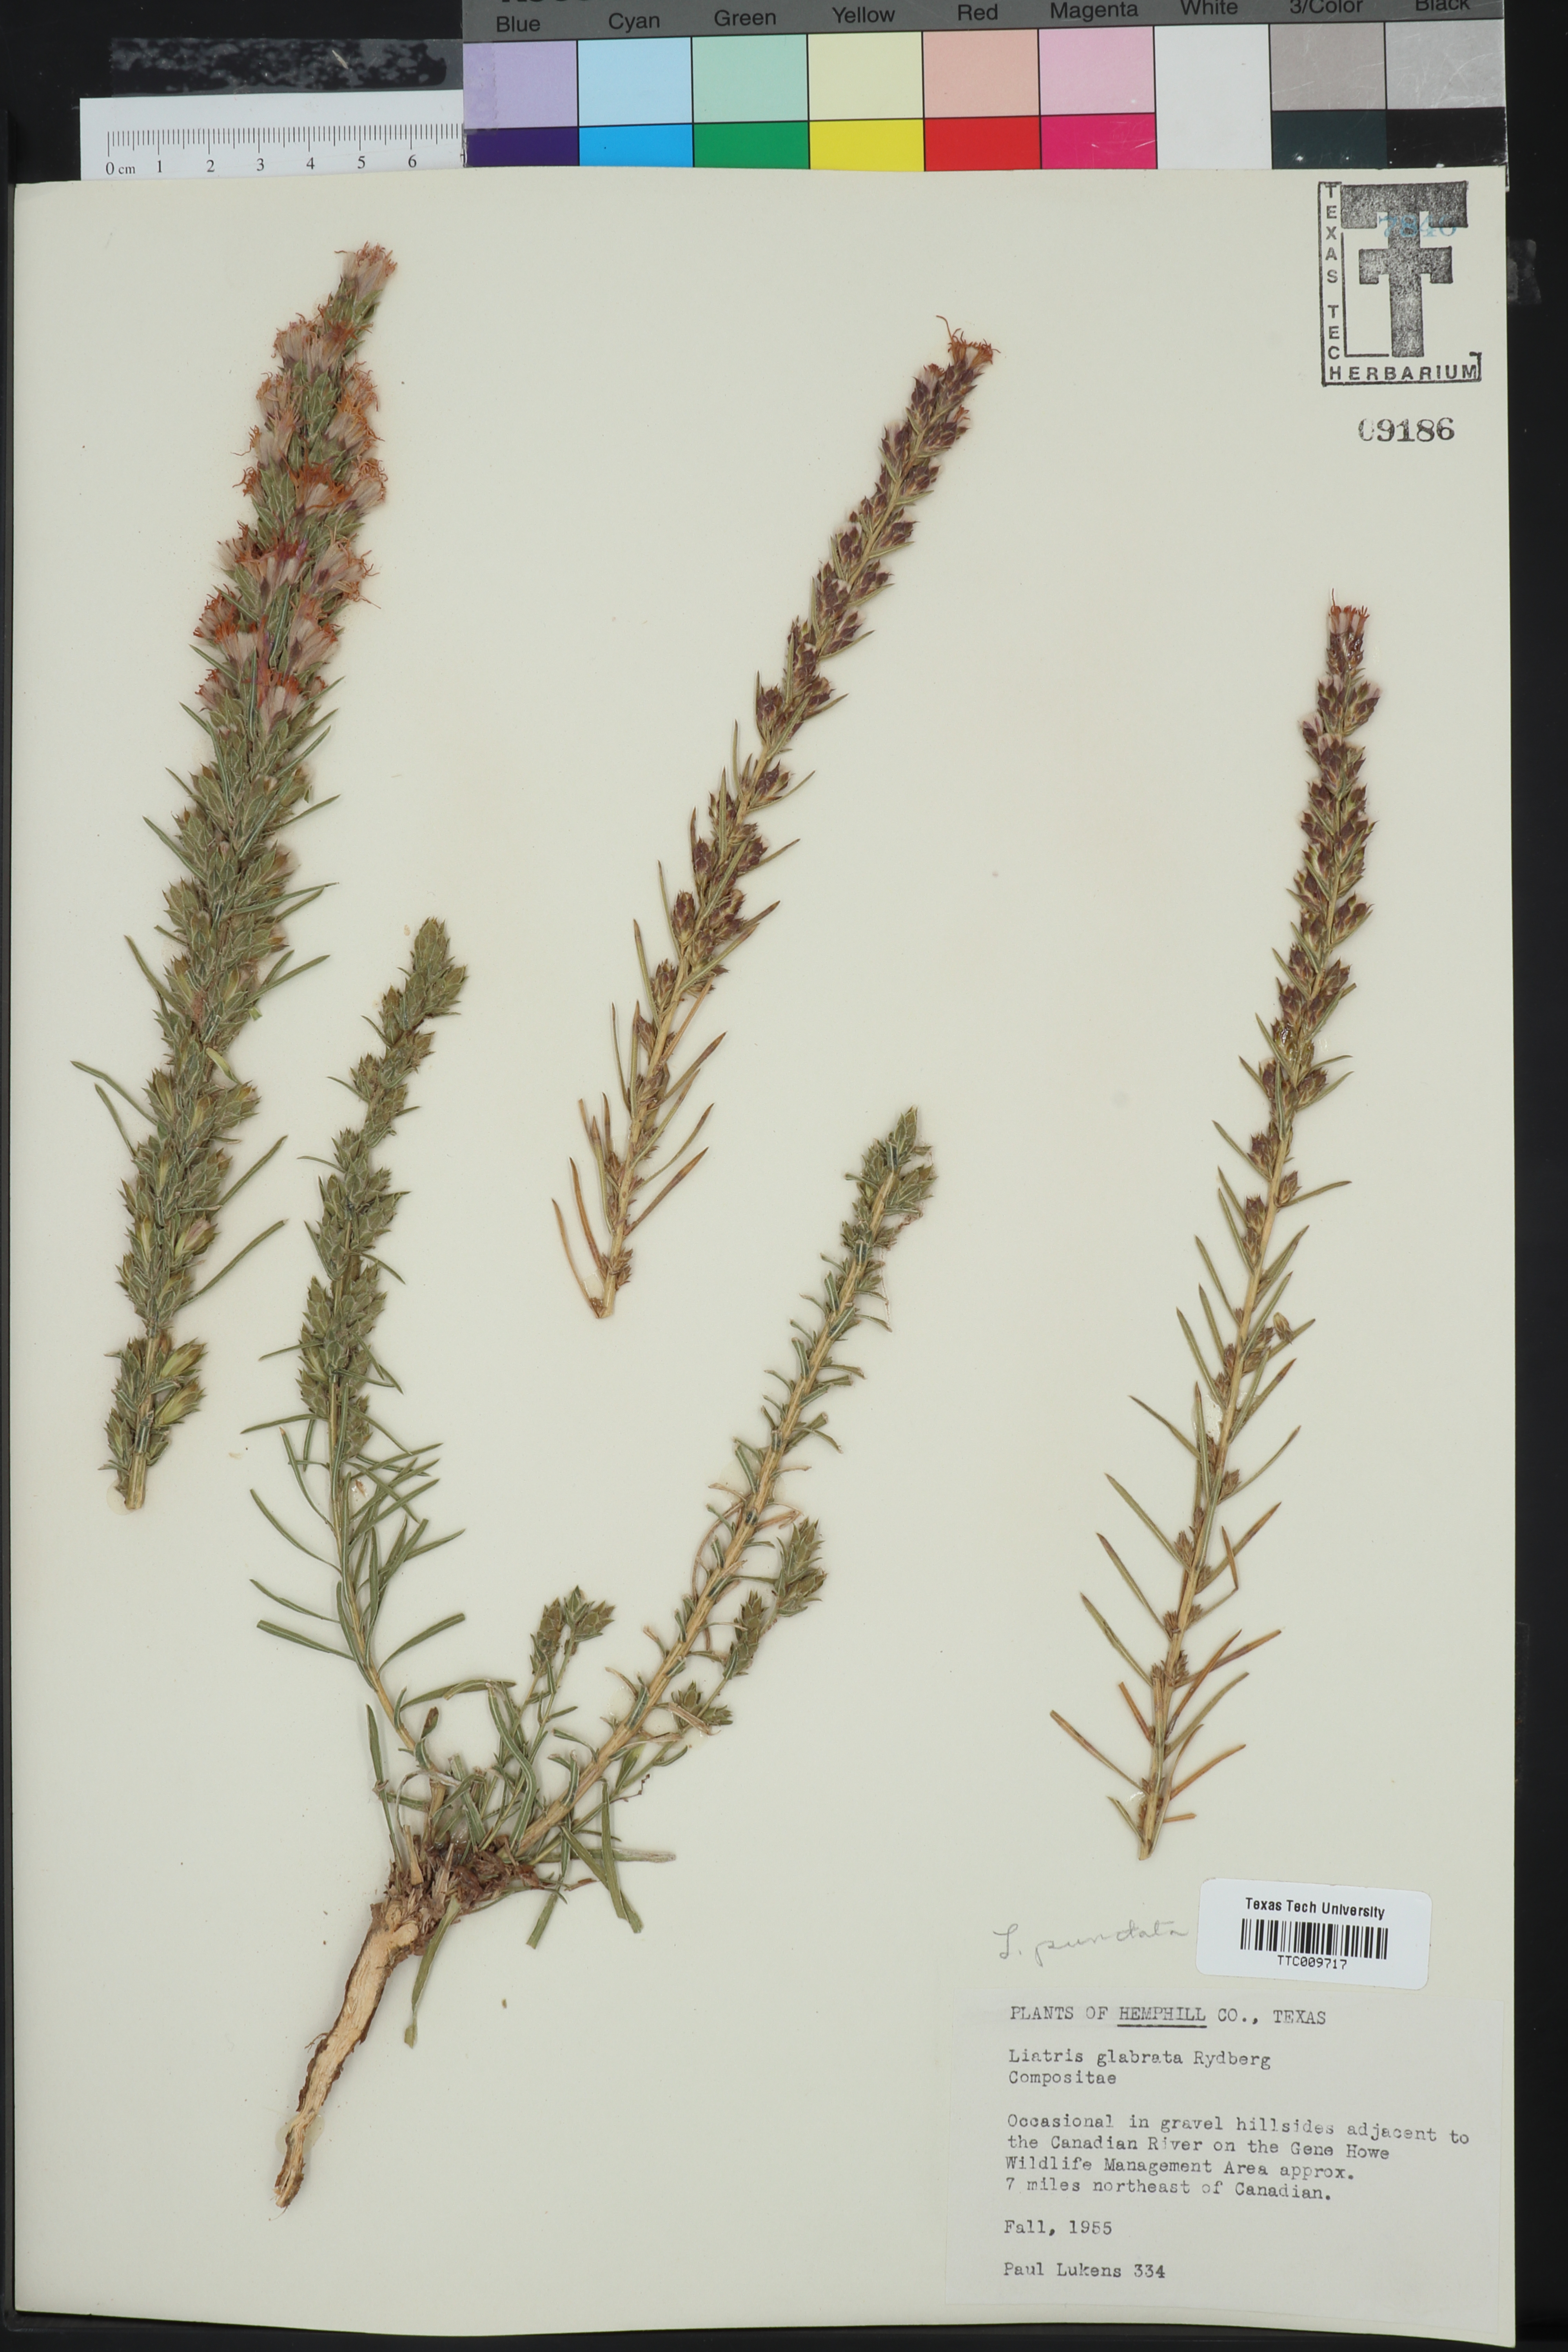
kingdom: Plantae
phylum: Tracheophyta
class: Magnoliopsida
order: Asterales
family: Asteraceae
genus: Liatris
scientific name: Liatris punctata
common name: Dotted gayfeather
